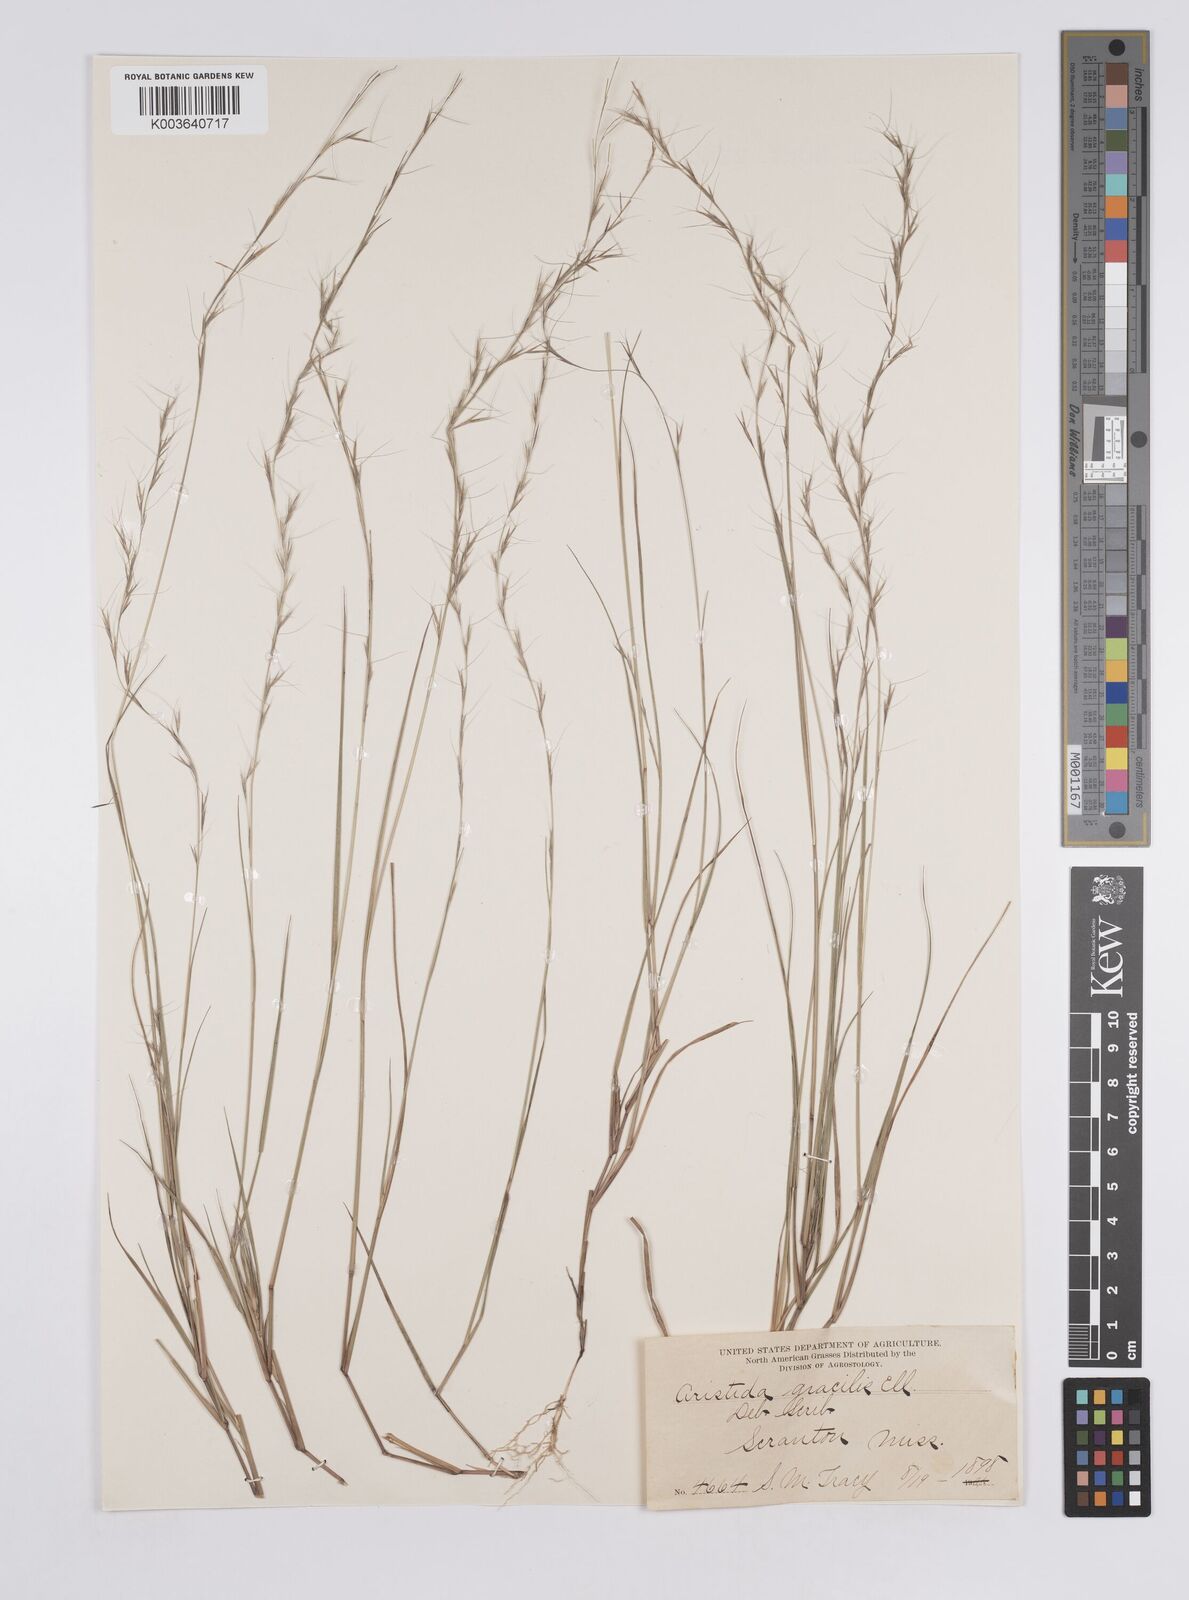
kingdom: Plantae
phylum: Tracheophyta
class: Liliopsida
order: Poales
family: Poaceae
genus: Aristida
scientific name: Aristida longespica
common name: Long-spiked triple-awned grass
